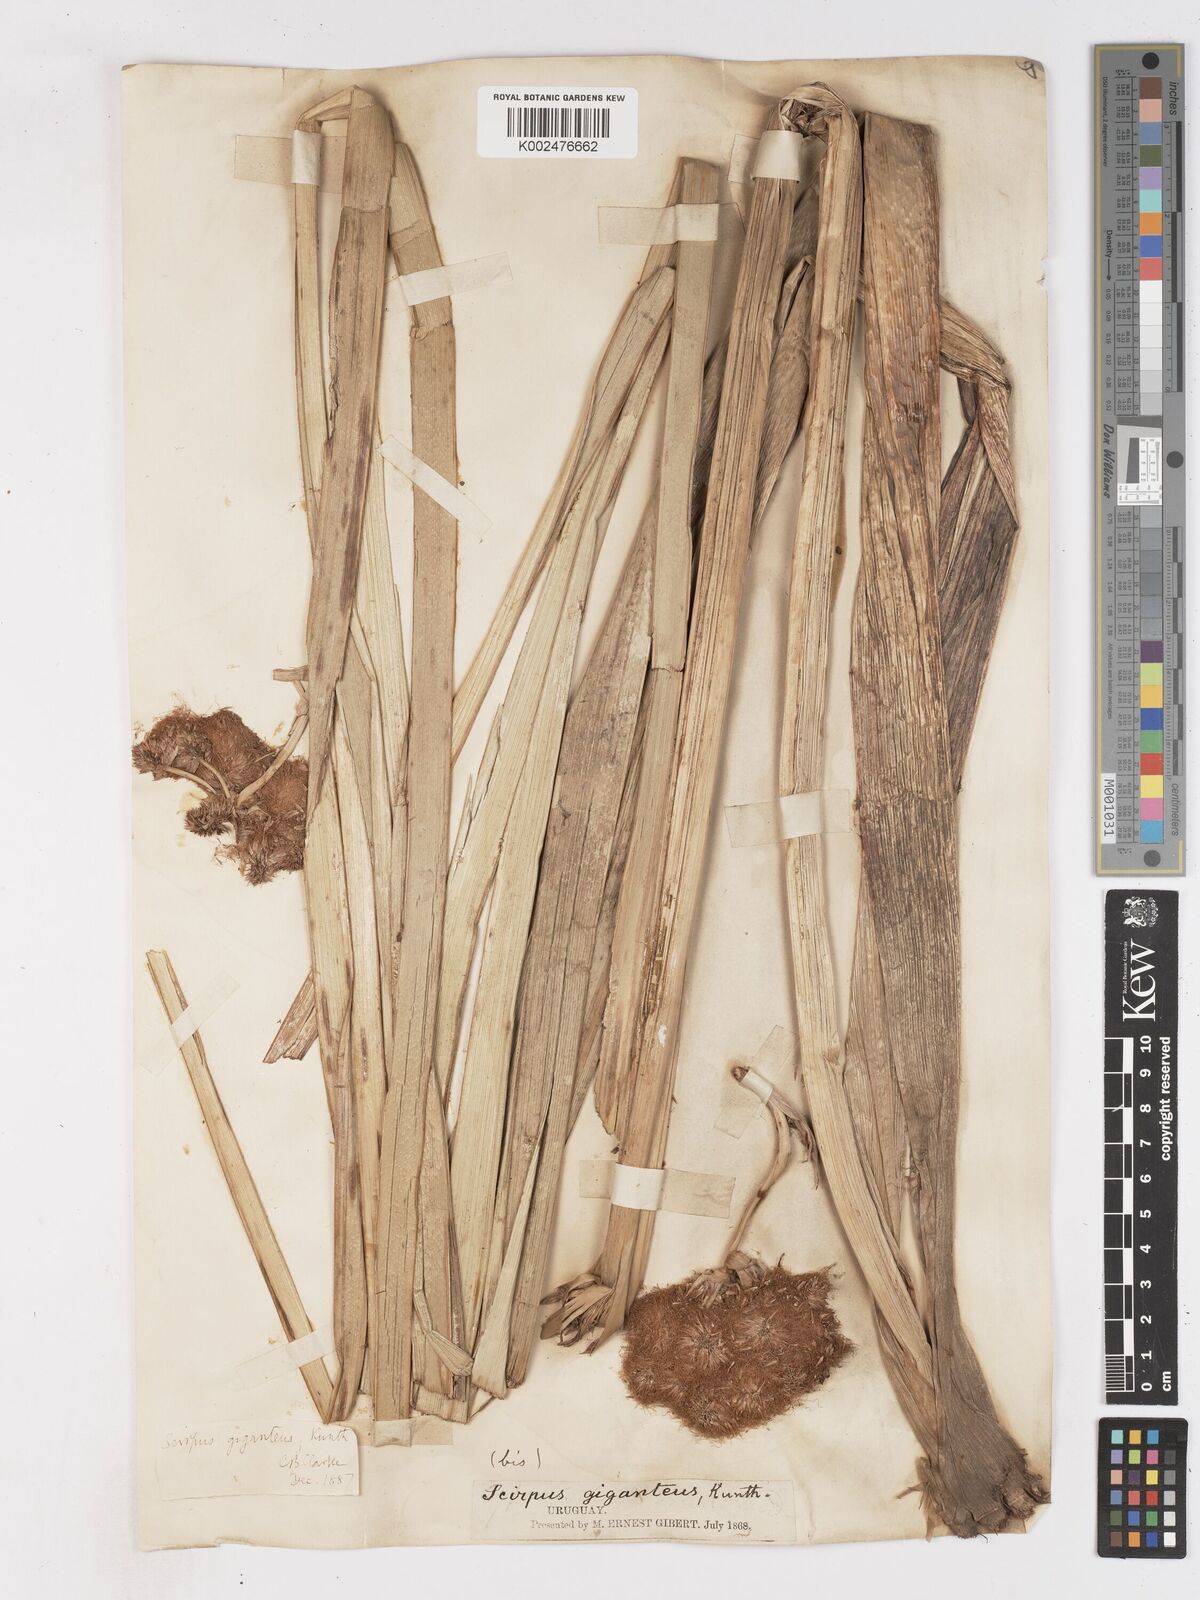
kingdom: Plantae
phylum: Tracheophyta
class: Liliopsida
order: Poales
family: Cyperaceae
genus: Cyperus
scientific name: Cyperus byssaceus
